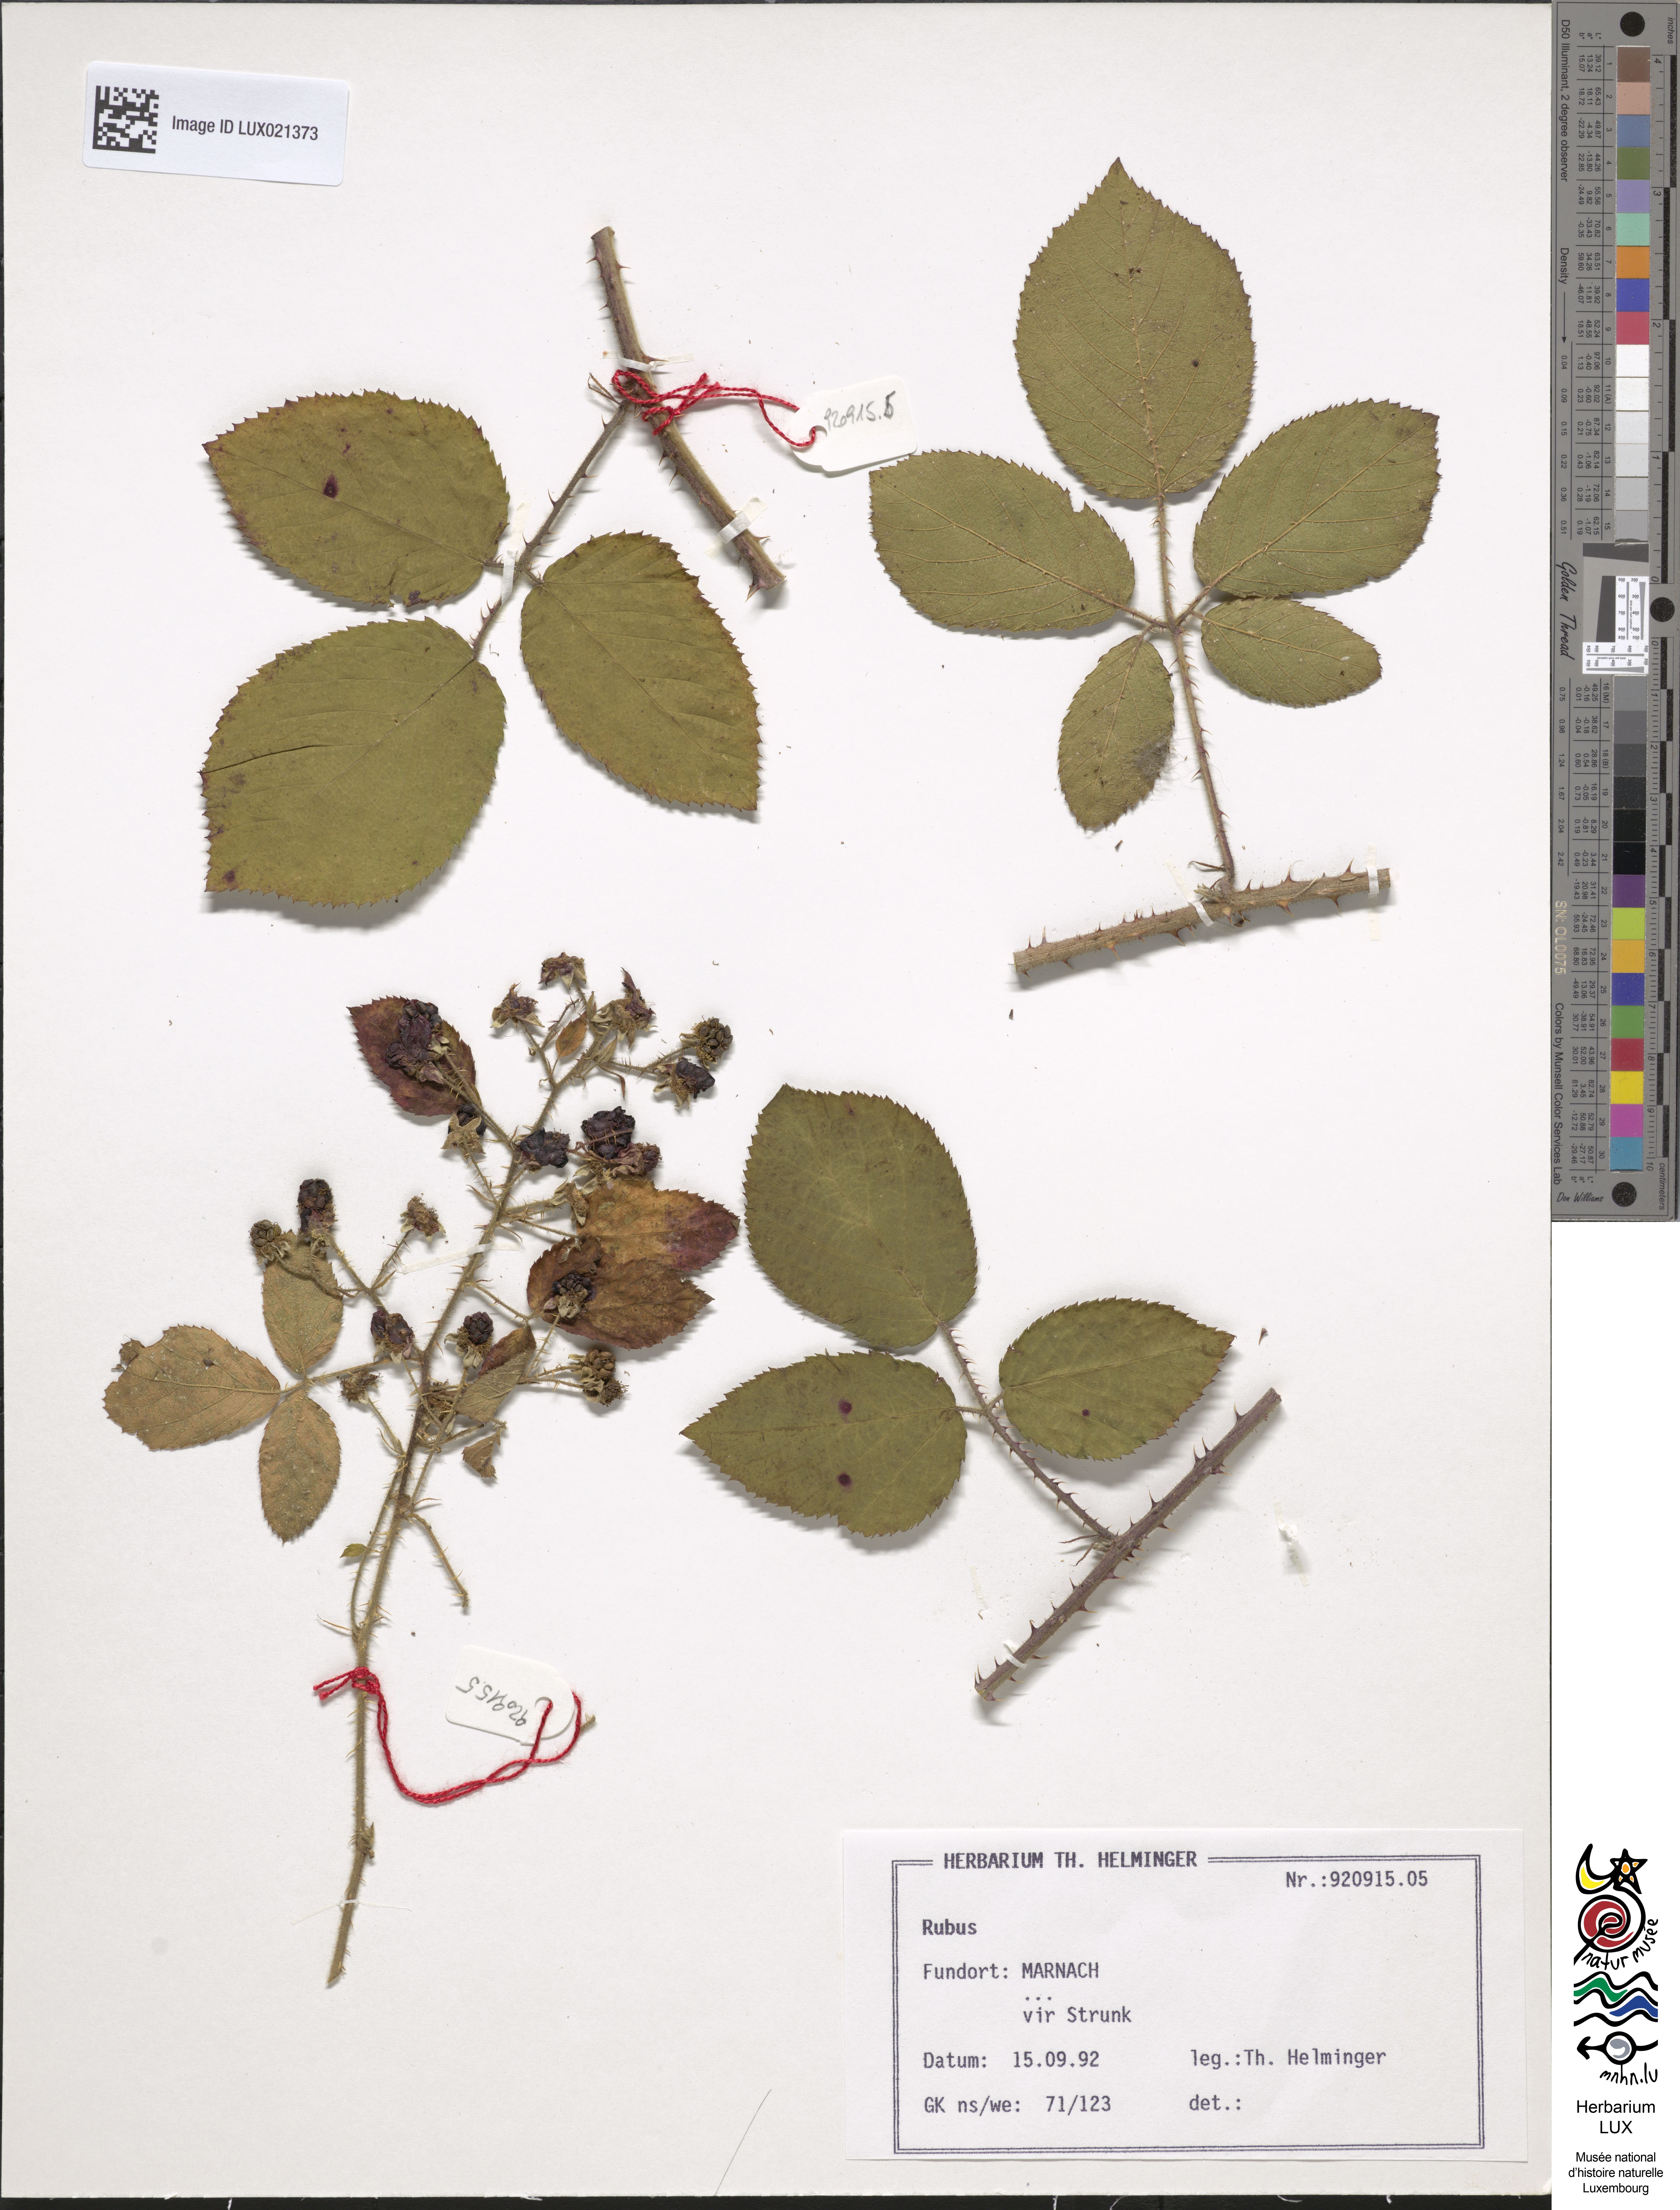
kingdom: Plantae
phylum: Tracheophyta
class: Magnoliopsida
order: Rosales
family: Rosaceae
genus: Rubus
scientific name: Rubus
